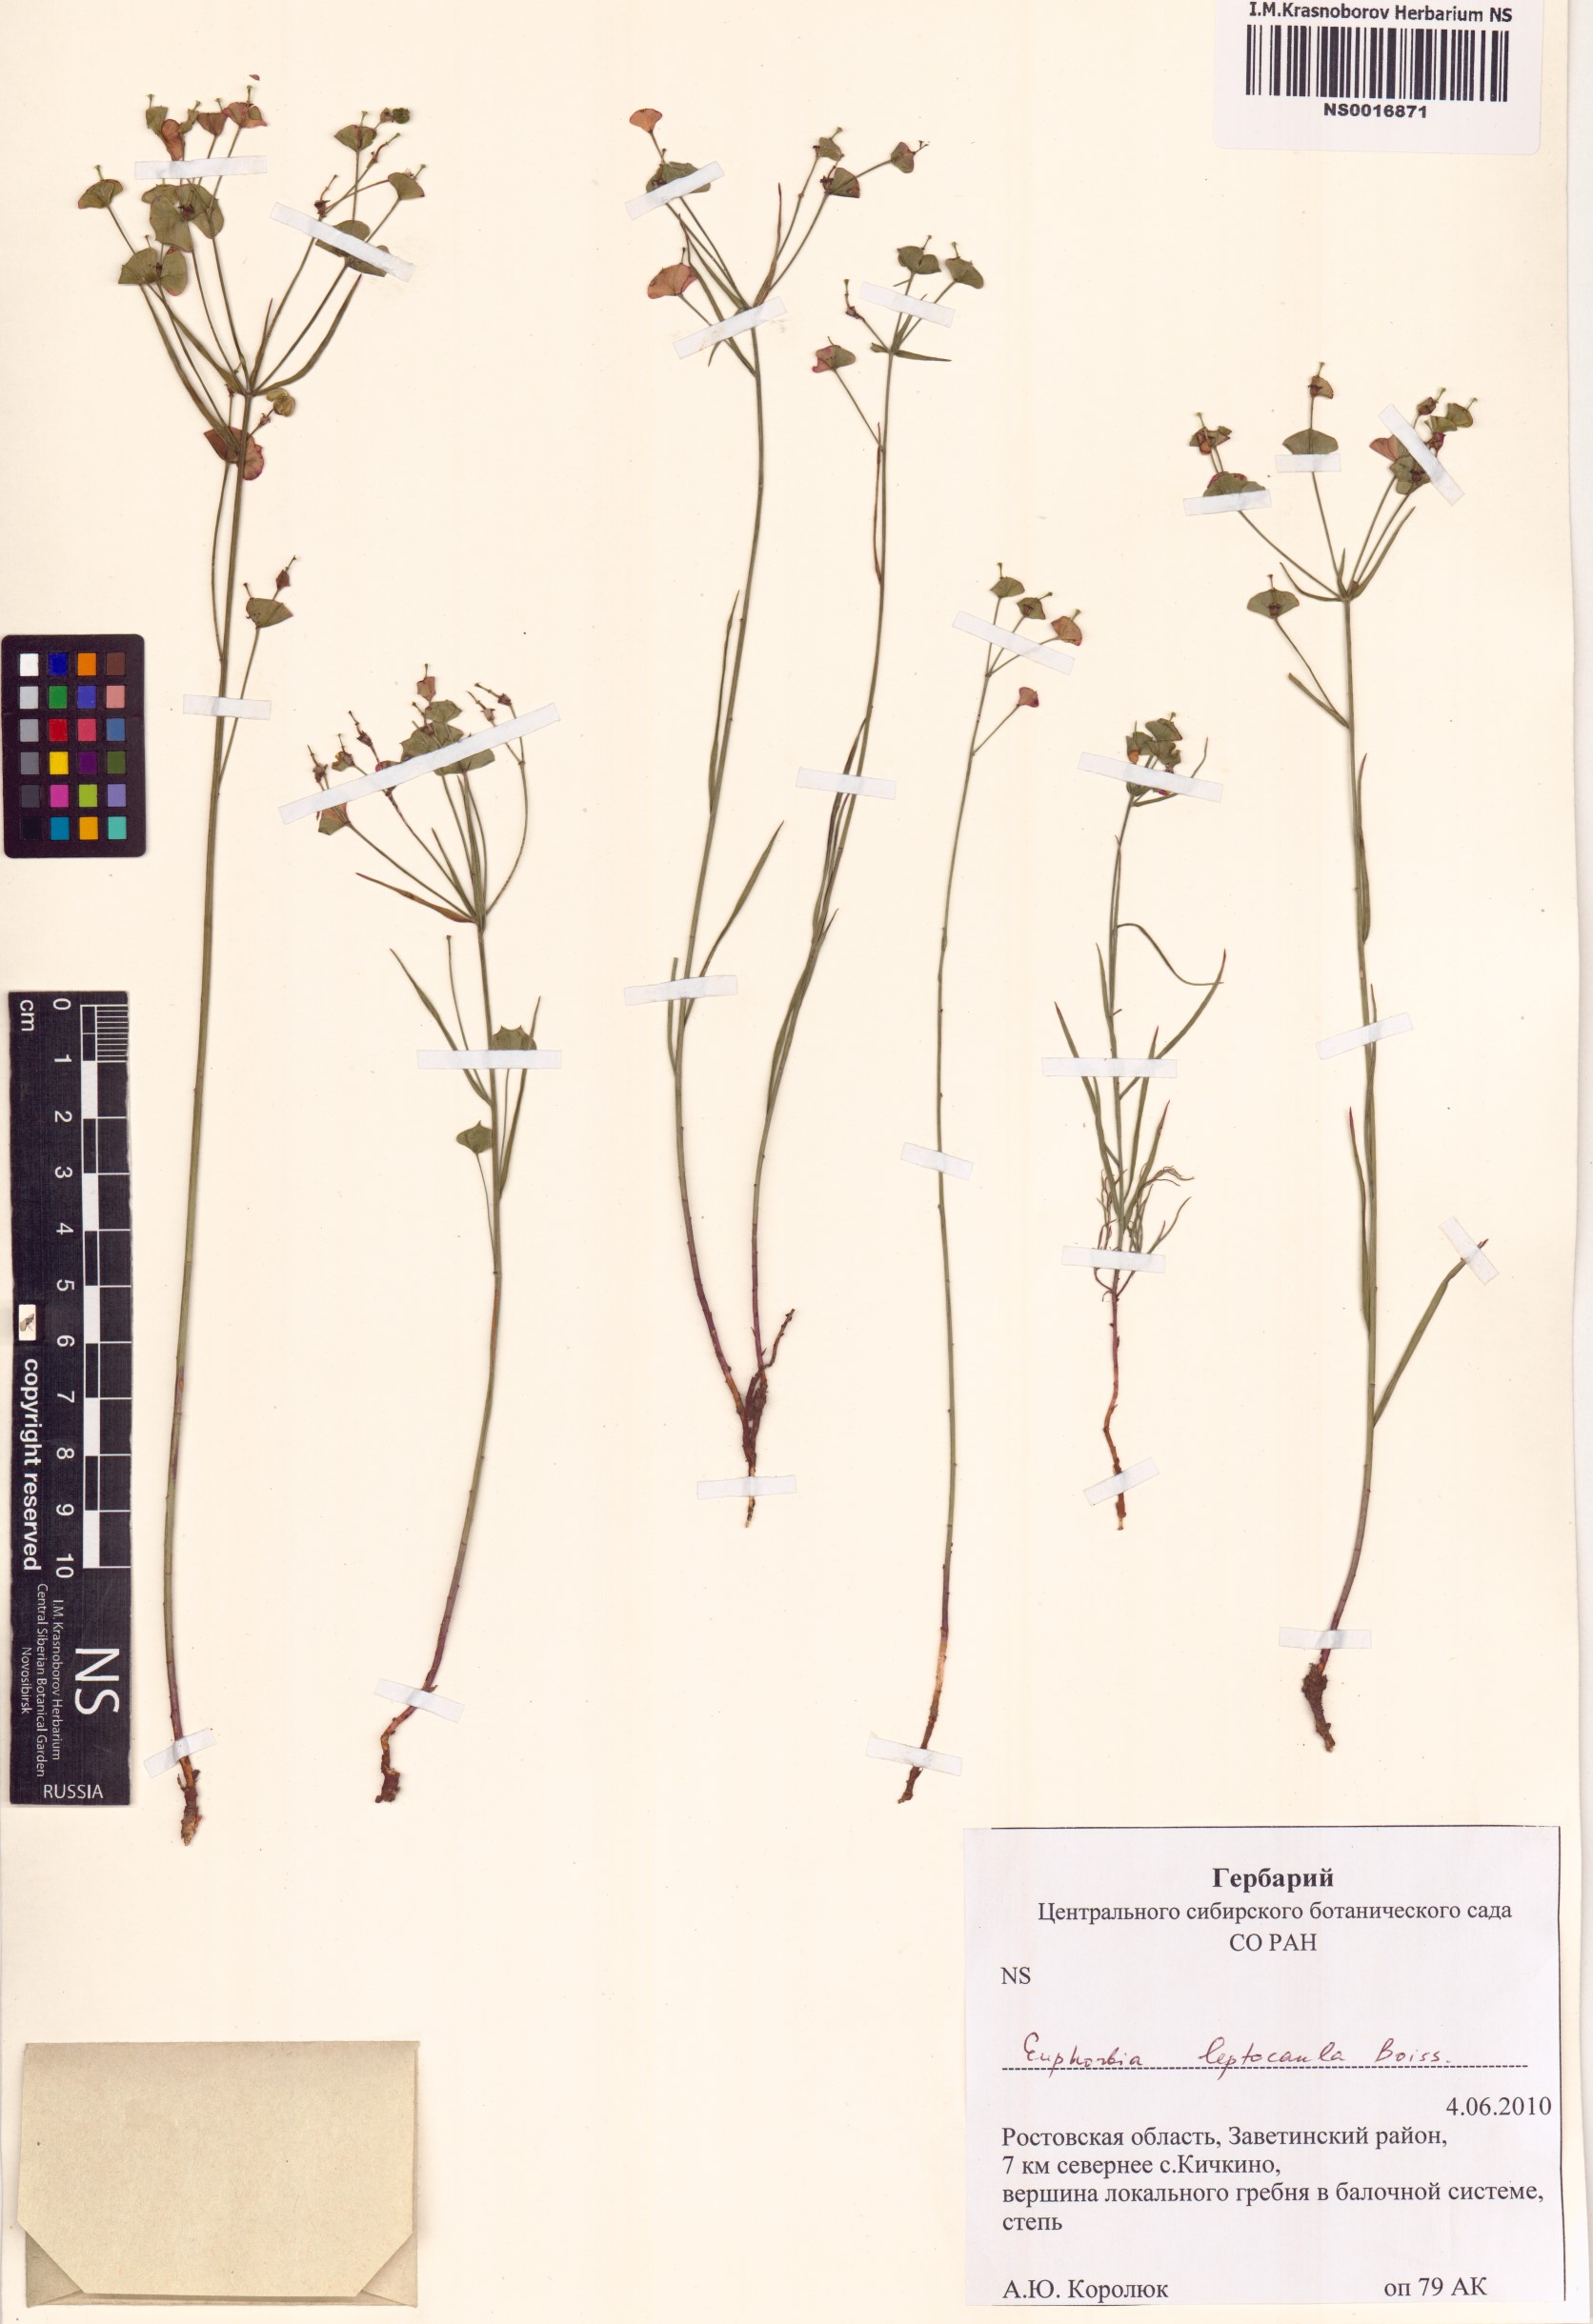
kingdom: Plantae
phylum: Tracheophyta
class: Magnoliopsida
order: Malpighiales
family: Euphorbiaceae
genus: Euphorbia
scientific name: Euphorbia leptocaula
